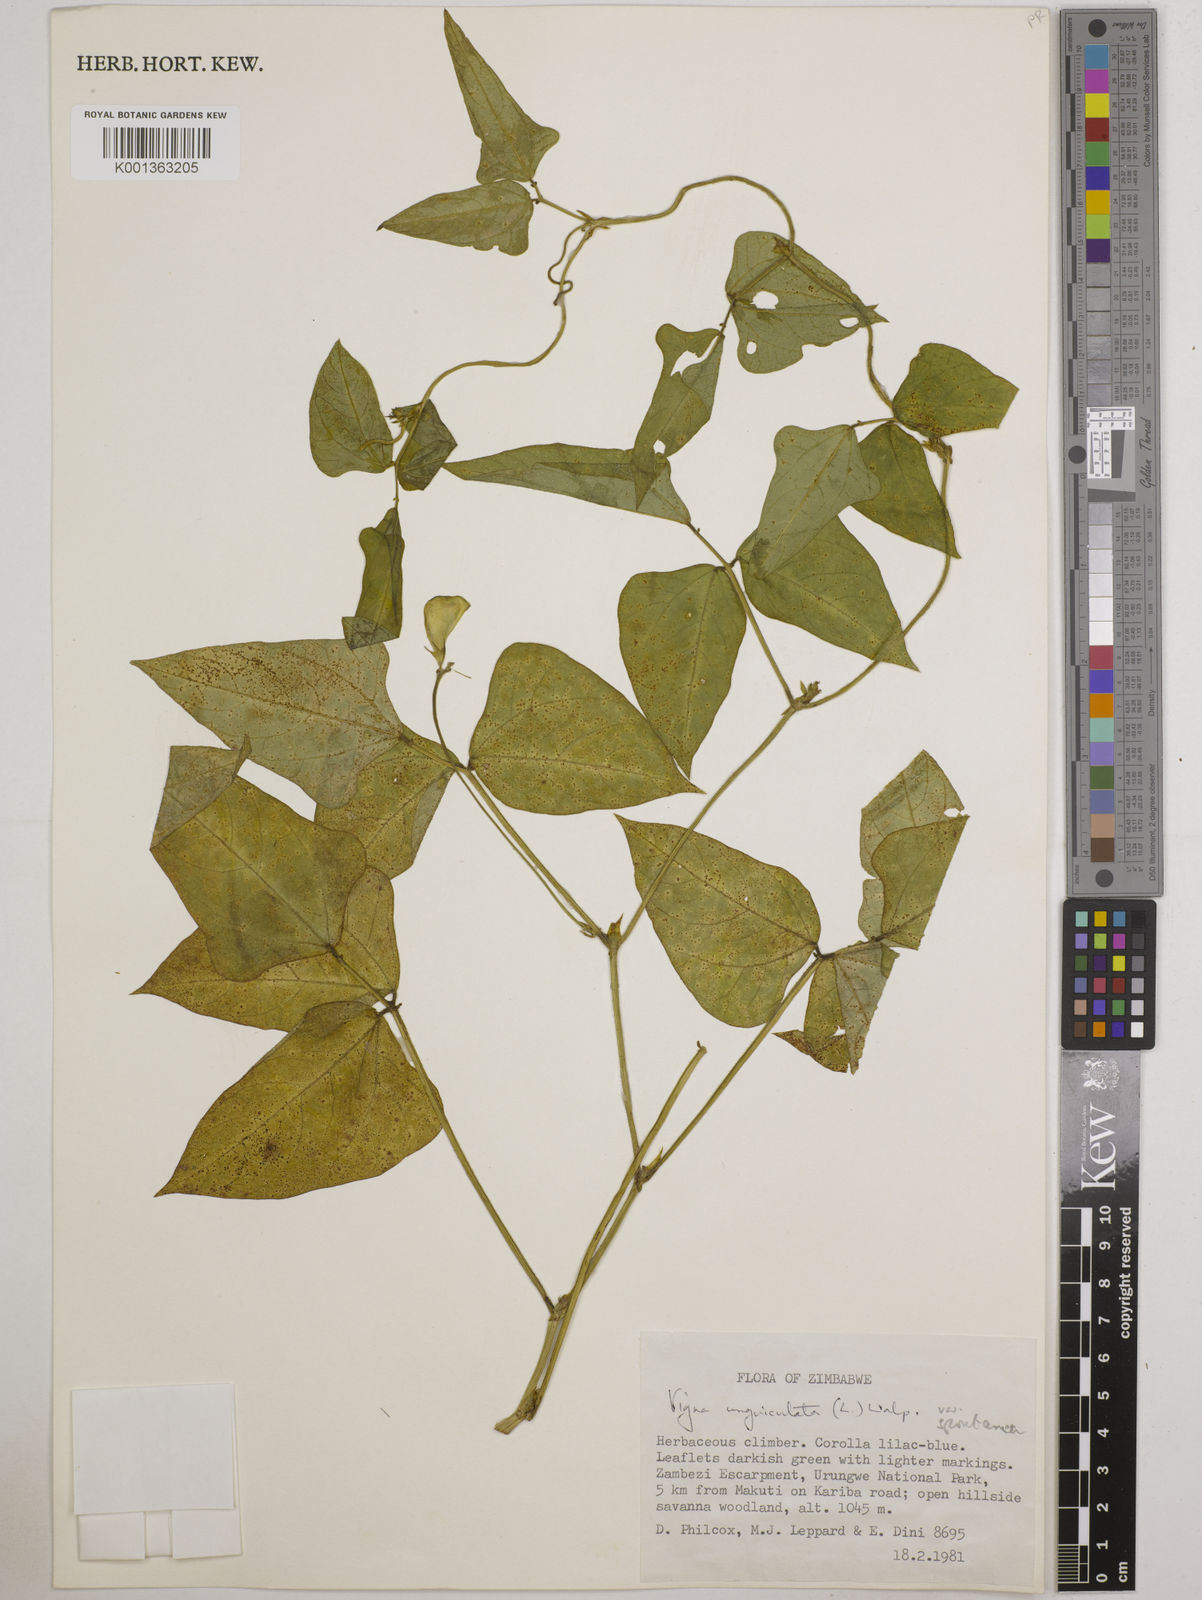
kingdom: Plantae
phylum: Tracheophyta
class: Magnoliopsida
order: Fabales
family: Fabaceae
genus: Vigna
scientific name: Vigna unguiculata
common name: Cowpea
